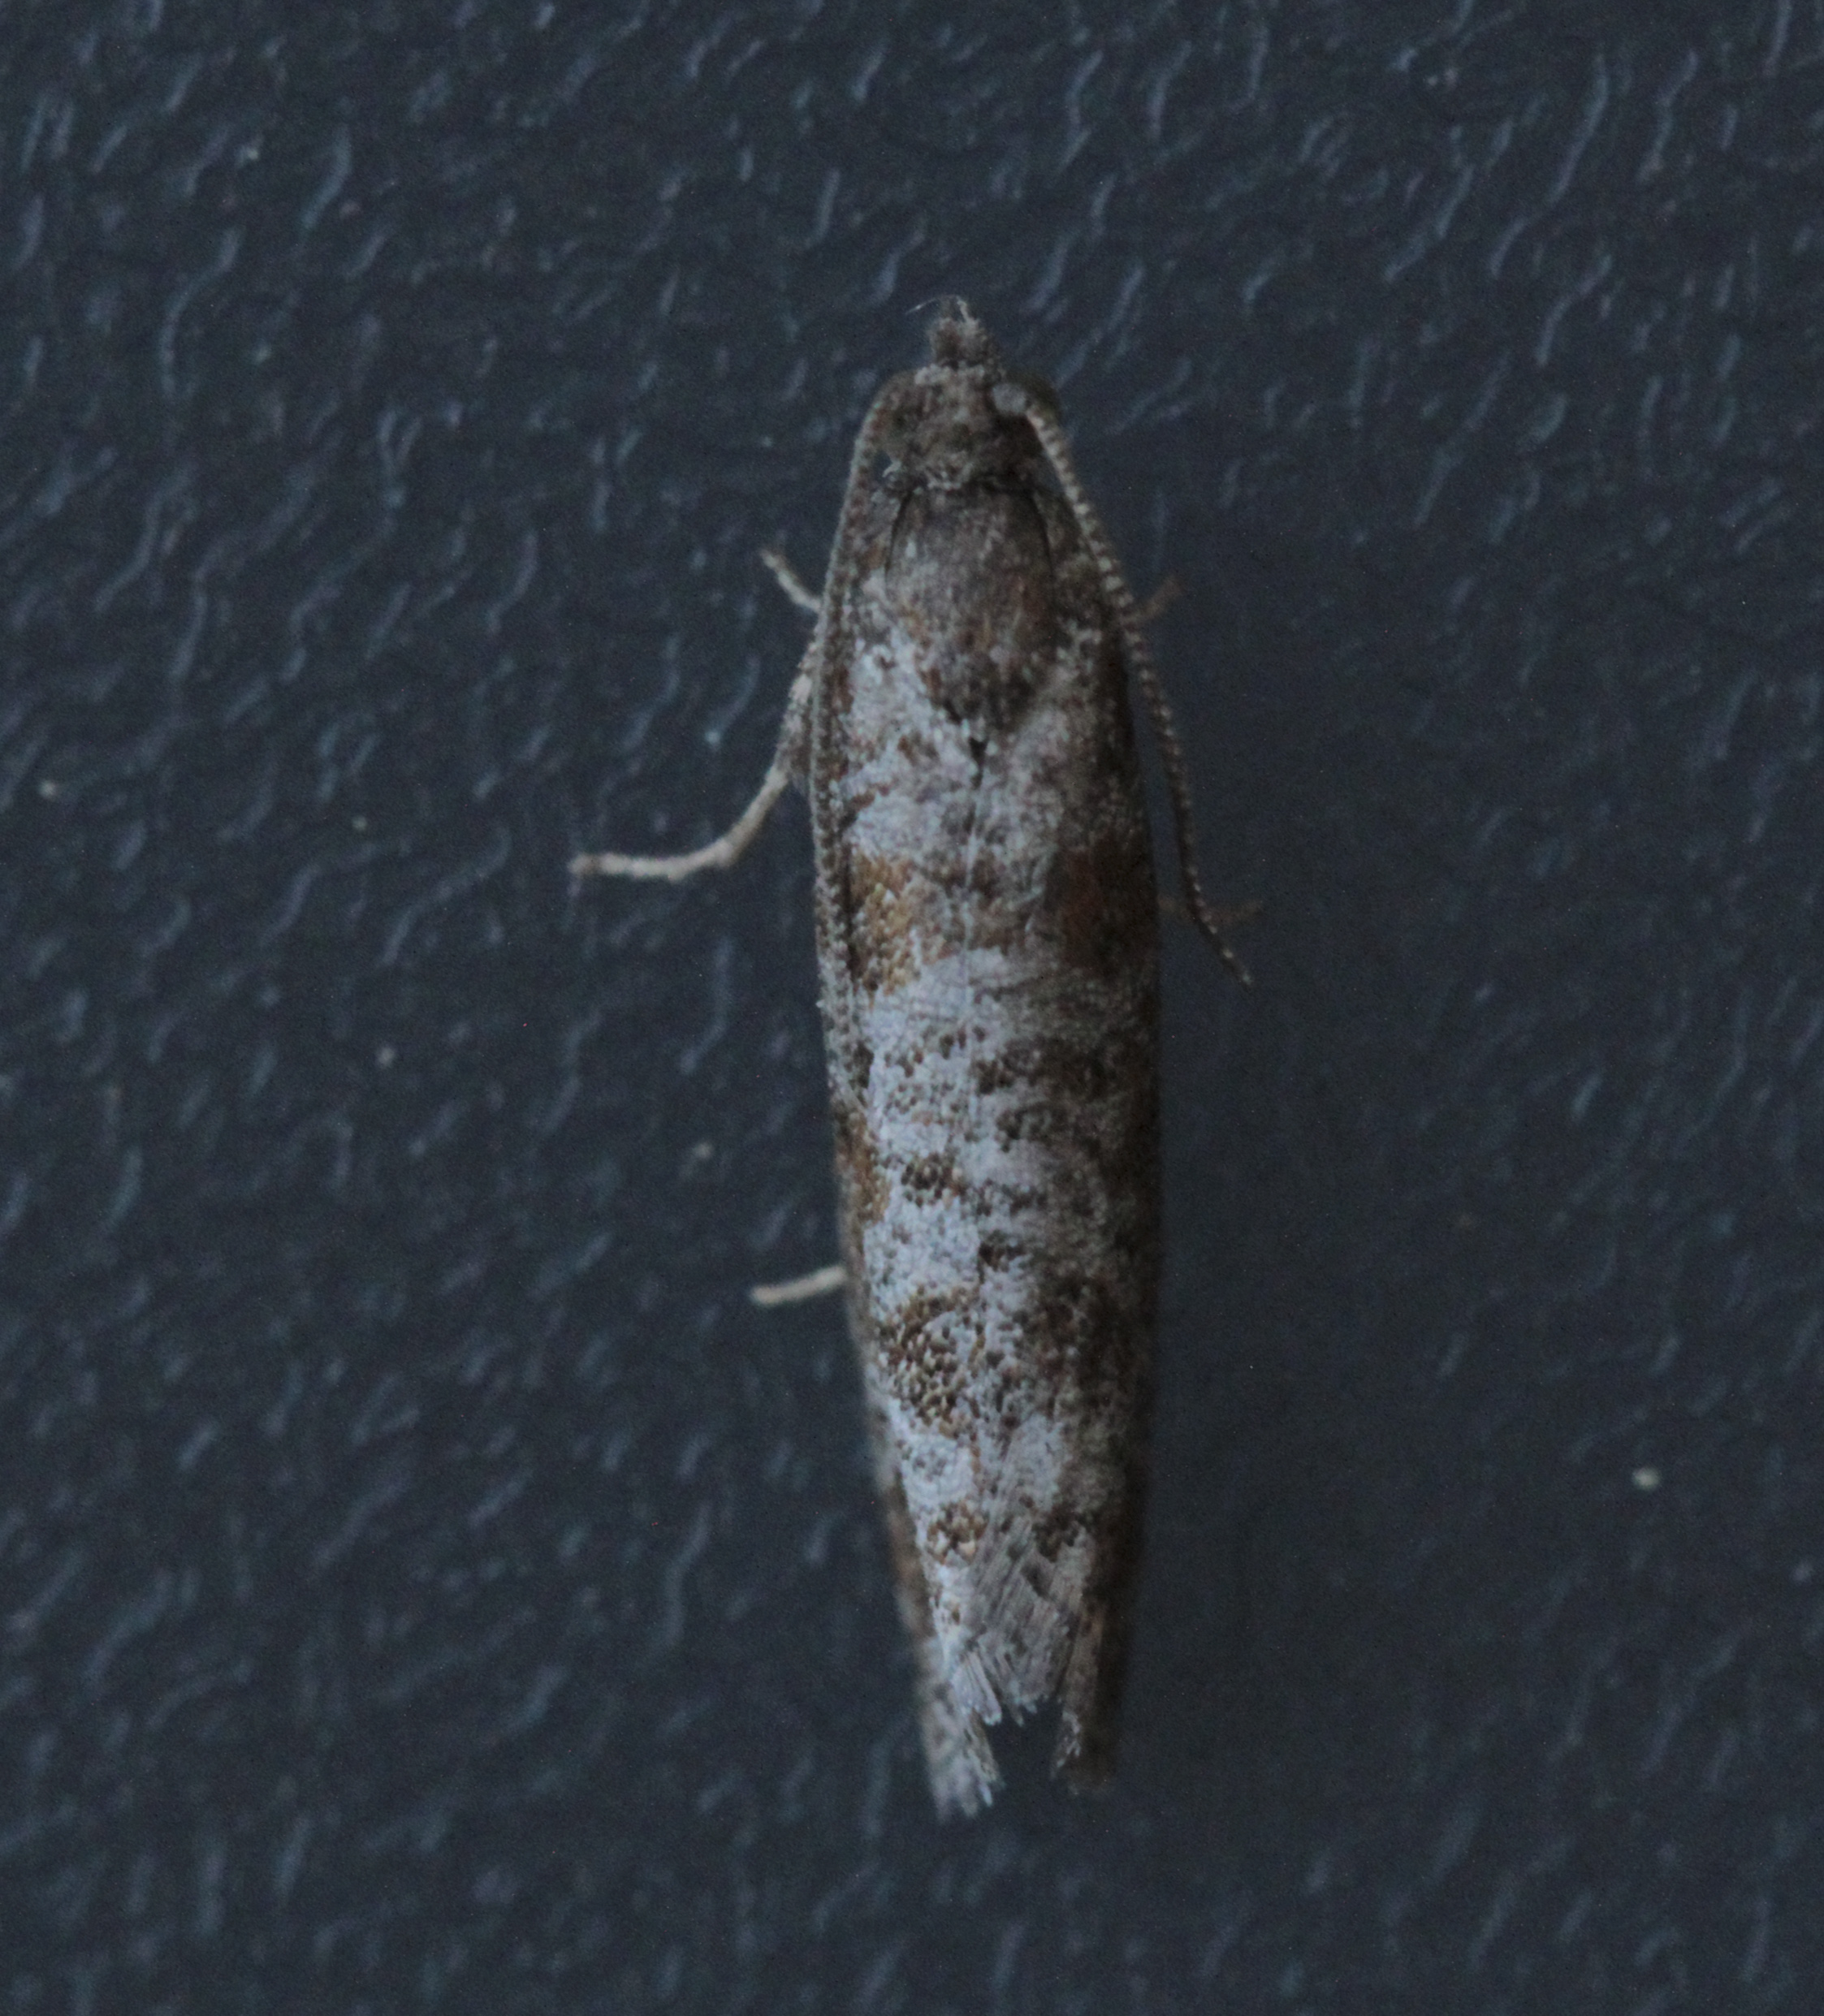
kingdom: Animalia
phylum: Arthropoda
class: Insecta
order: Lepidoptera
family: Tortricidae
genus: Rhyacionia
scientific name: Rhyacionia pinivorana
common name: Spotted shoot moth
